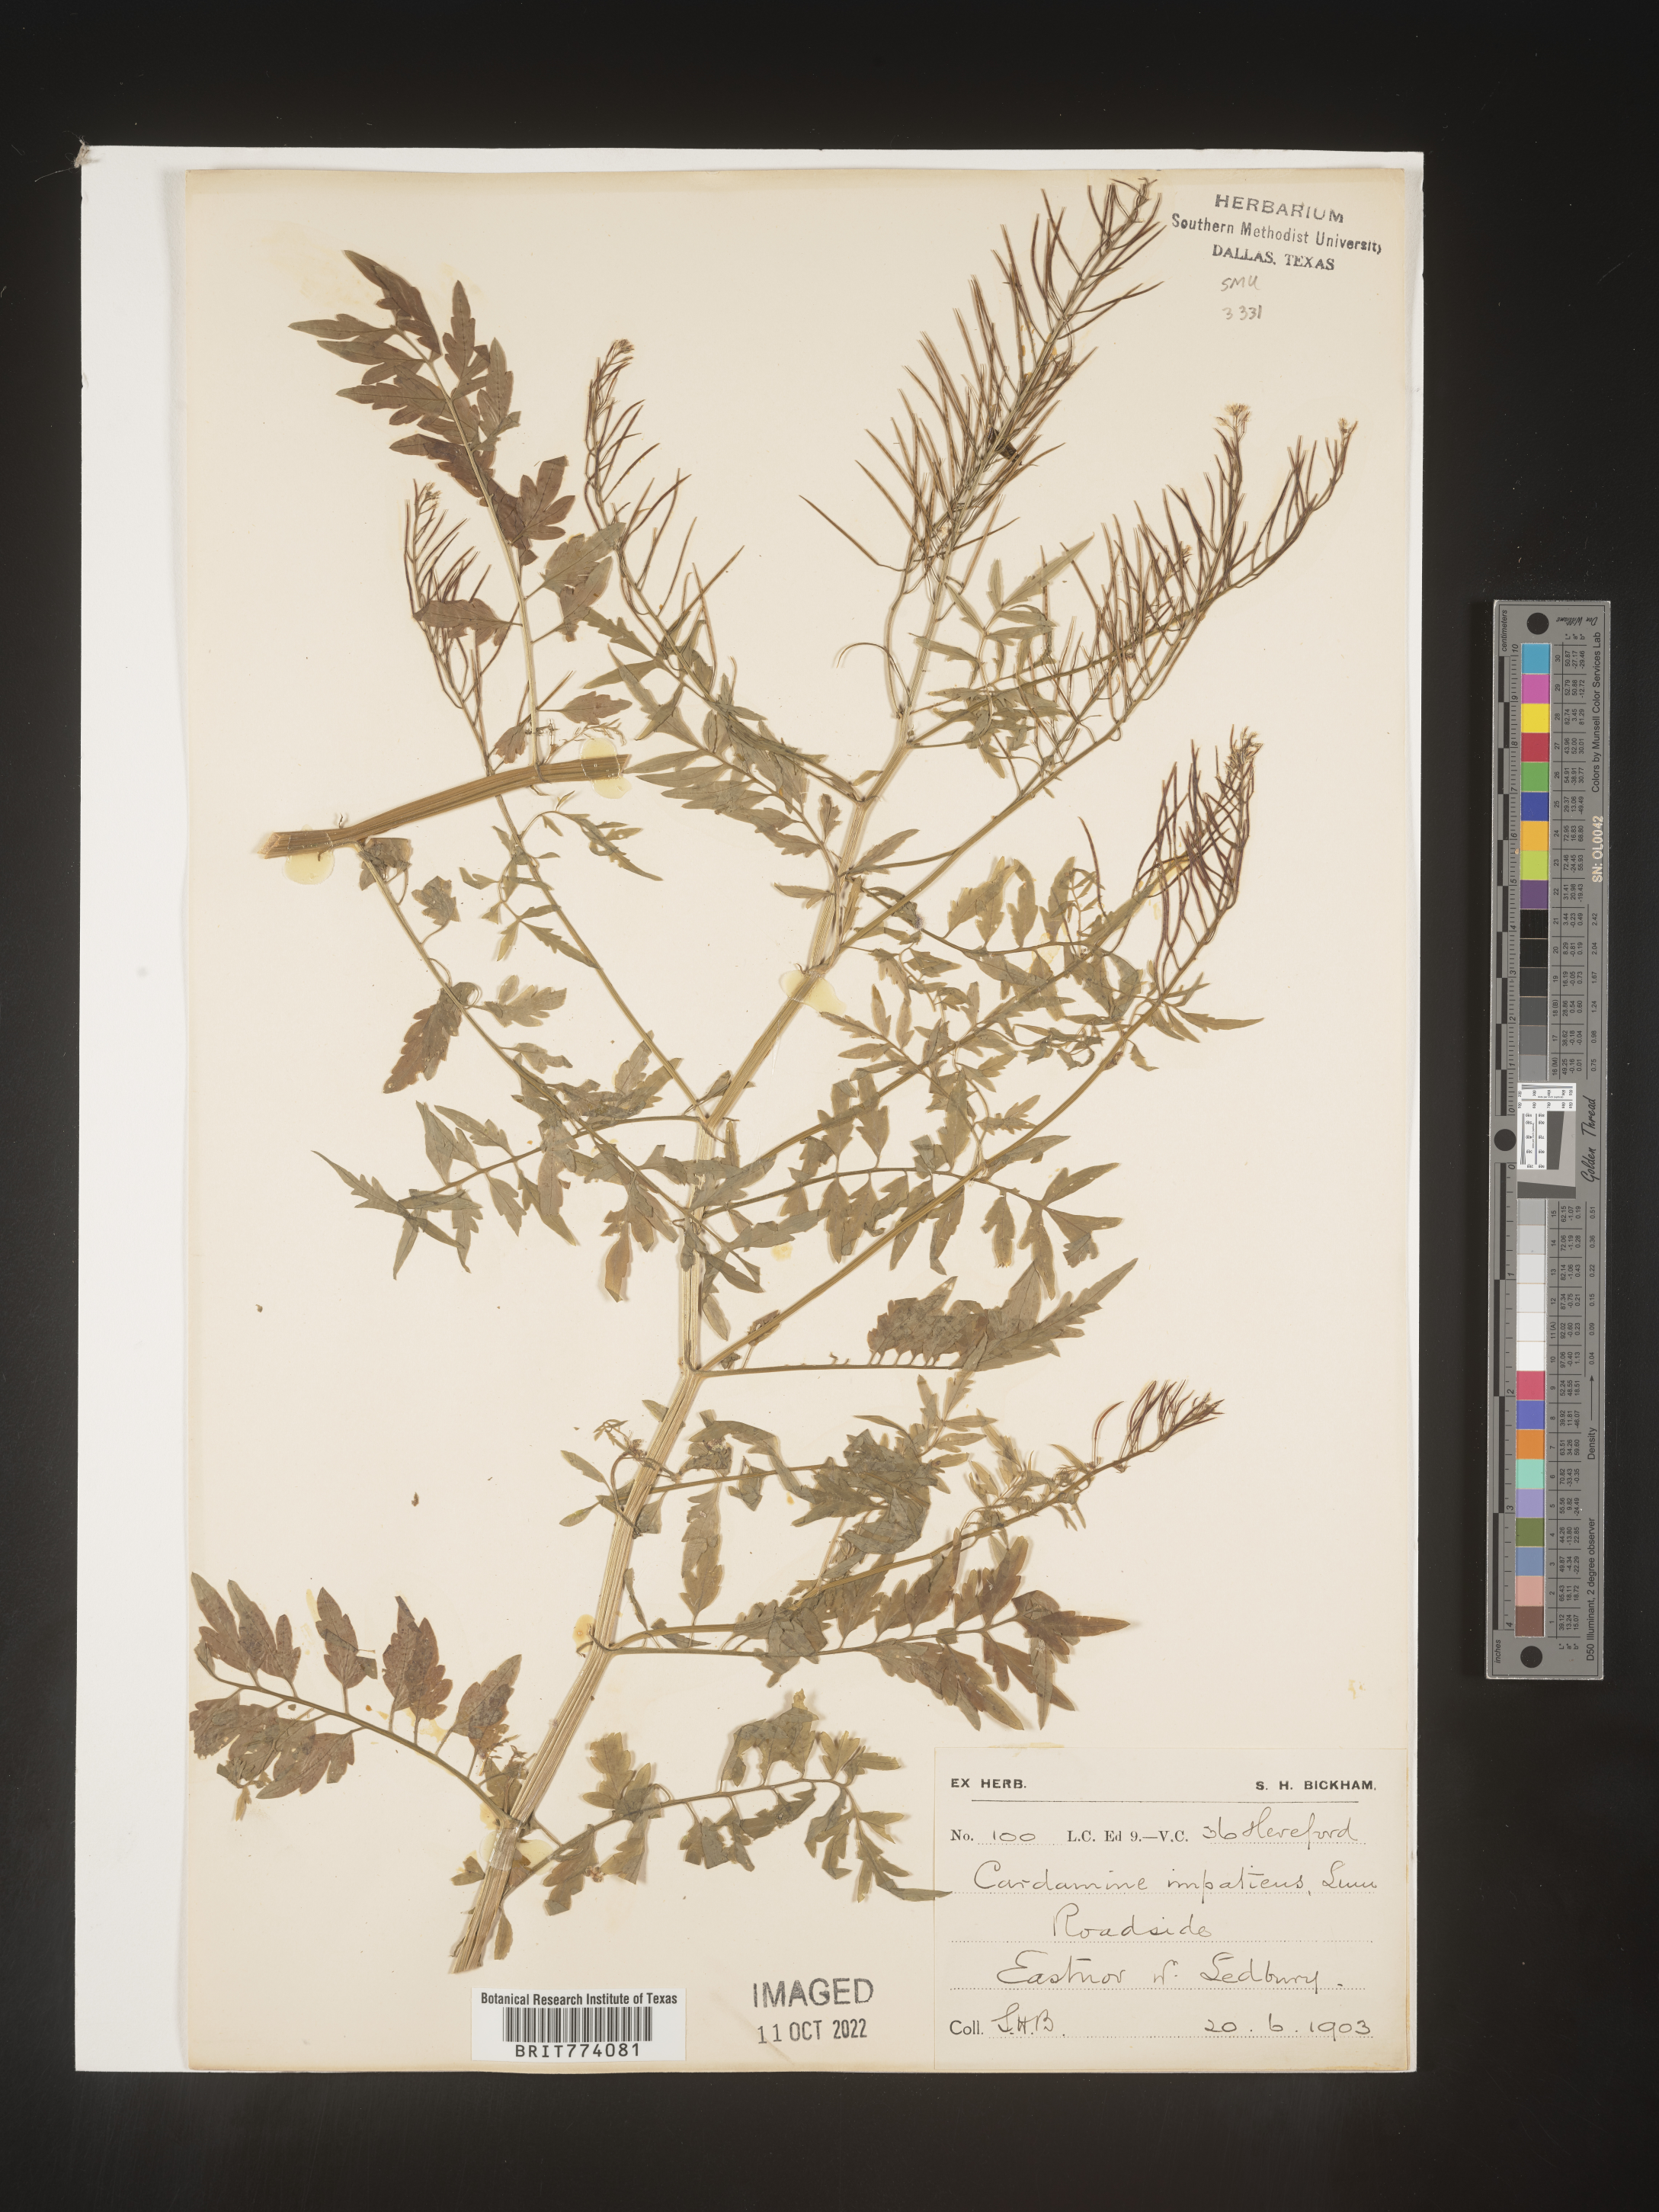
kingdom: Plantae
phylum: Tracheophyta
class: Magnoliopsida
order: Brassicales
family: Brassicaceae
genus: Cardamine
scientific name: Cardamine
